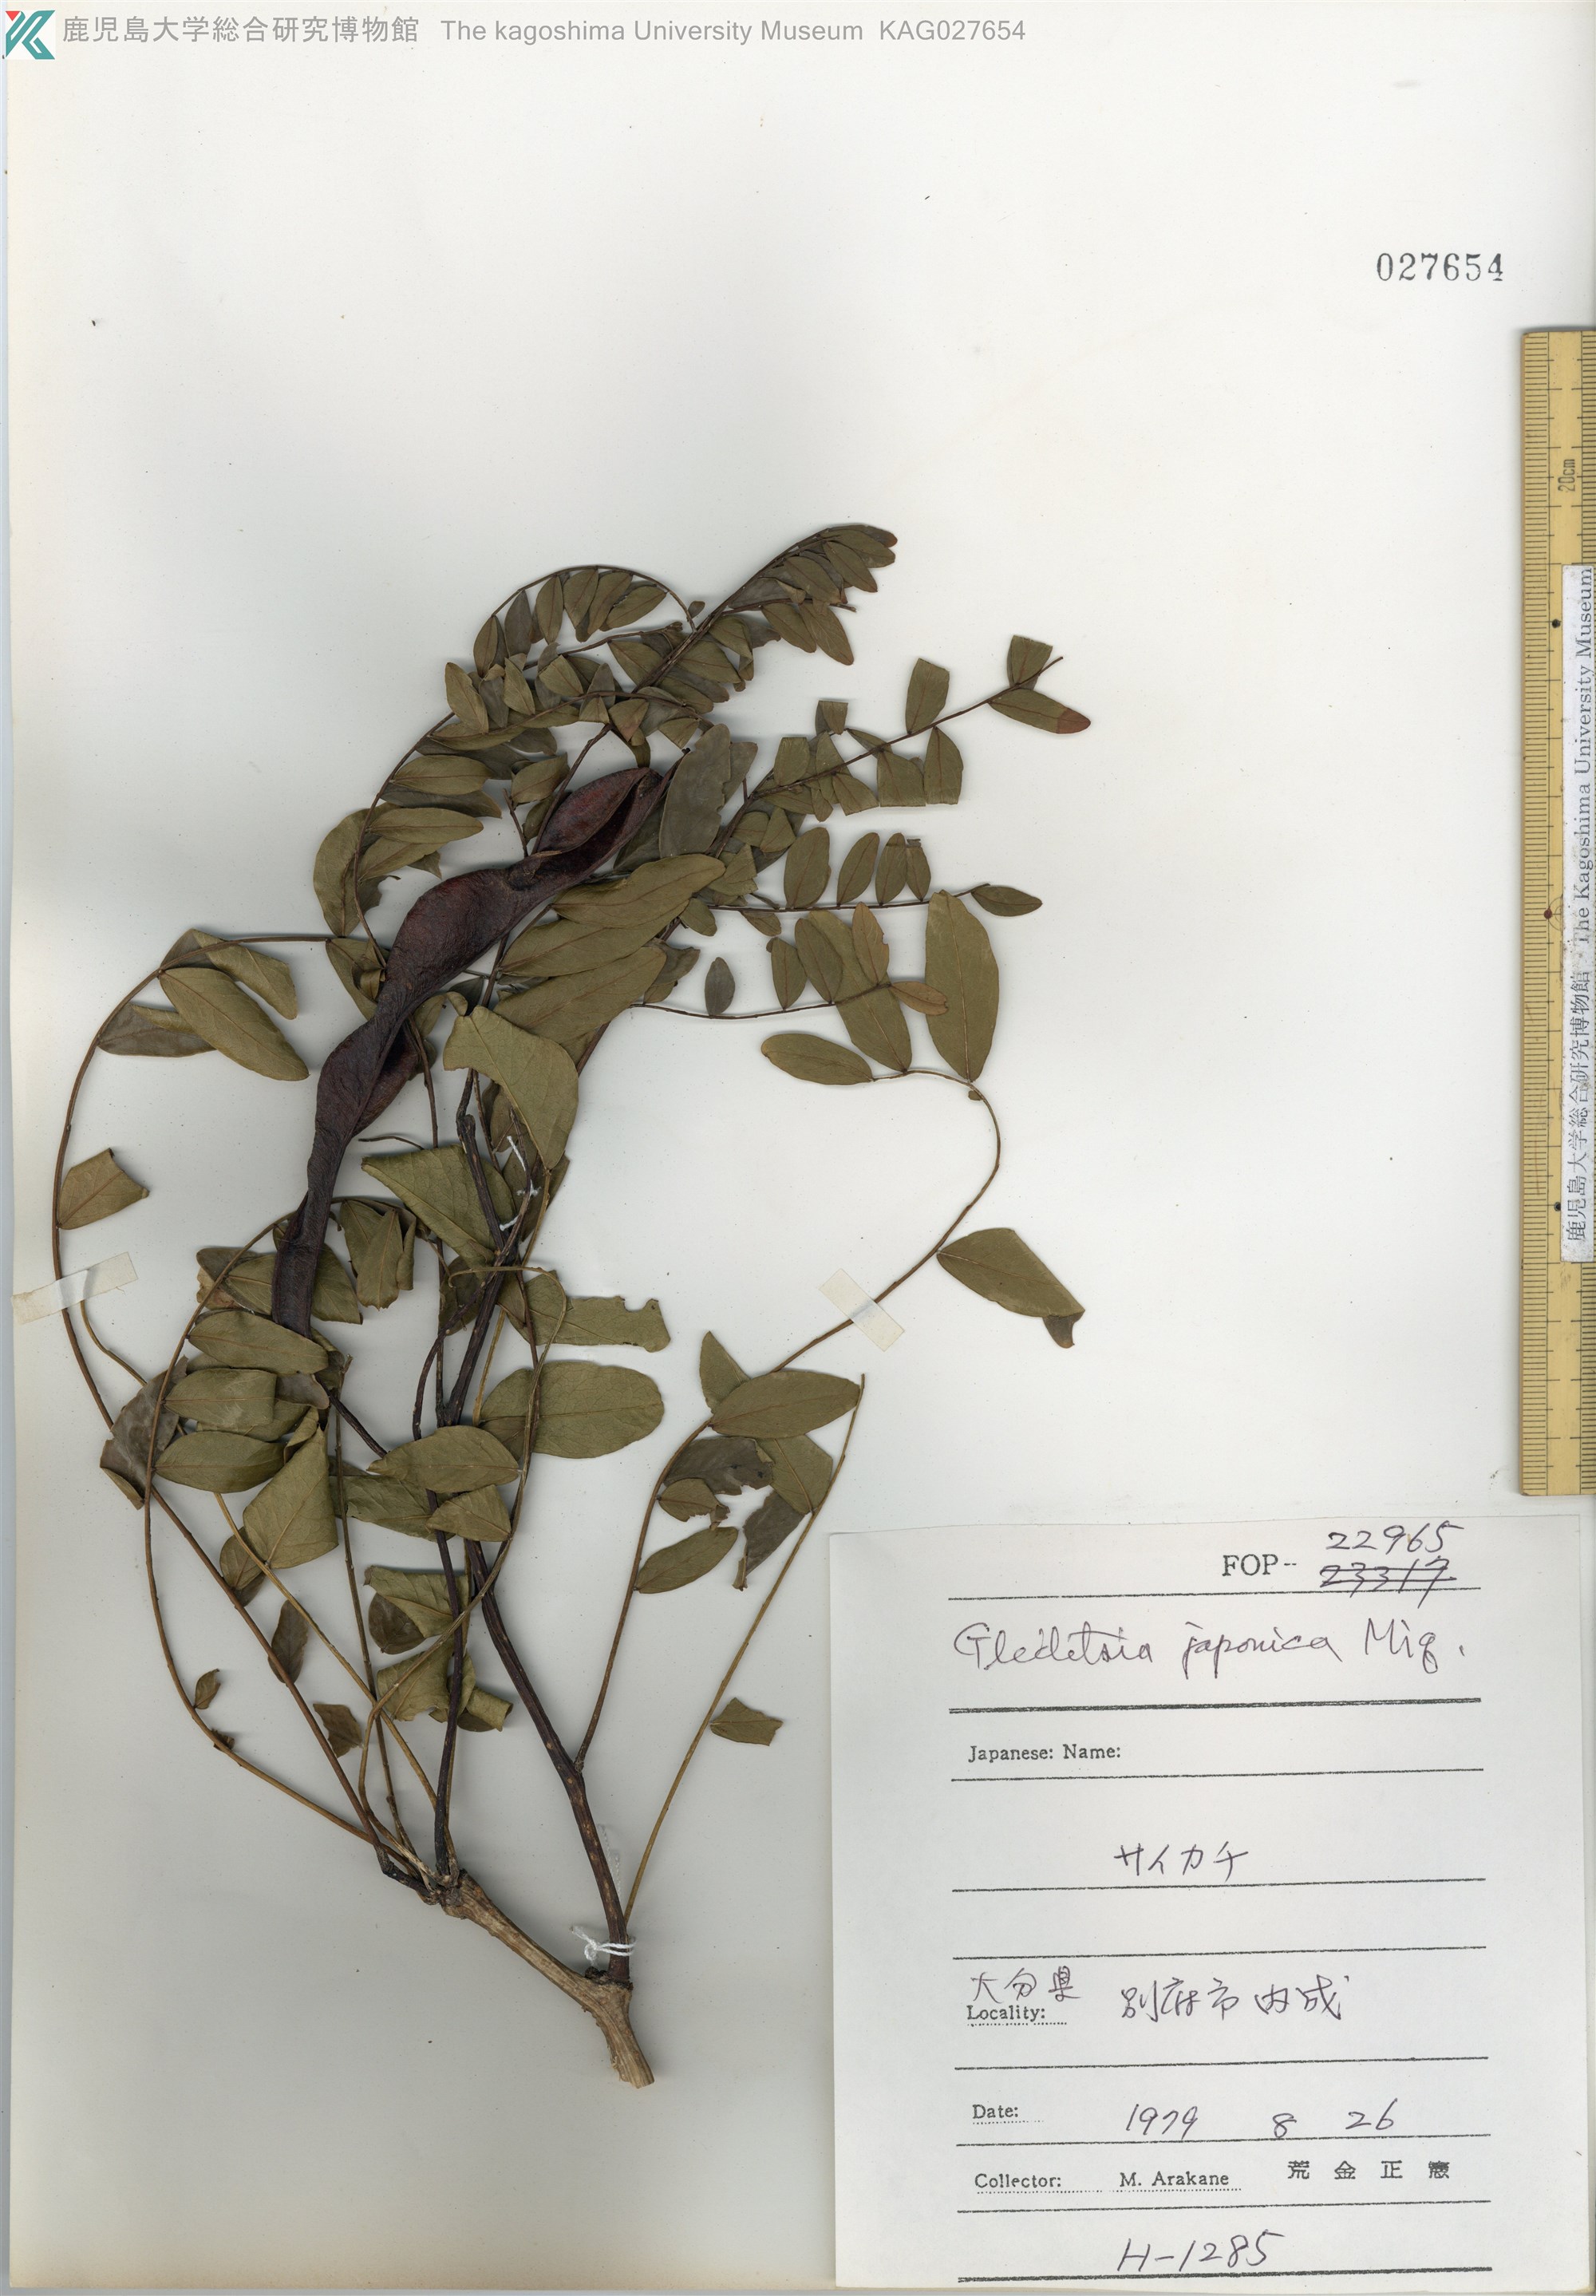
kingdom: Plantae
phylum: Tracheophyta
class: Magnoliopsida
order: Fabales
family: Fabaceae
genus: Gleditsia
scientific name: Gleditsia japonica
